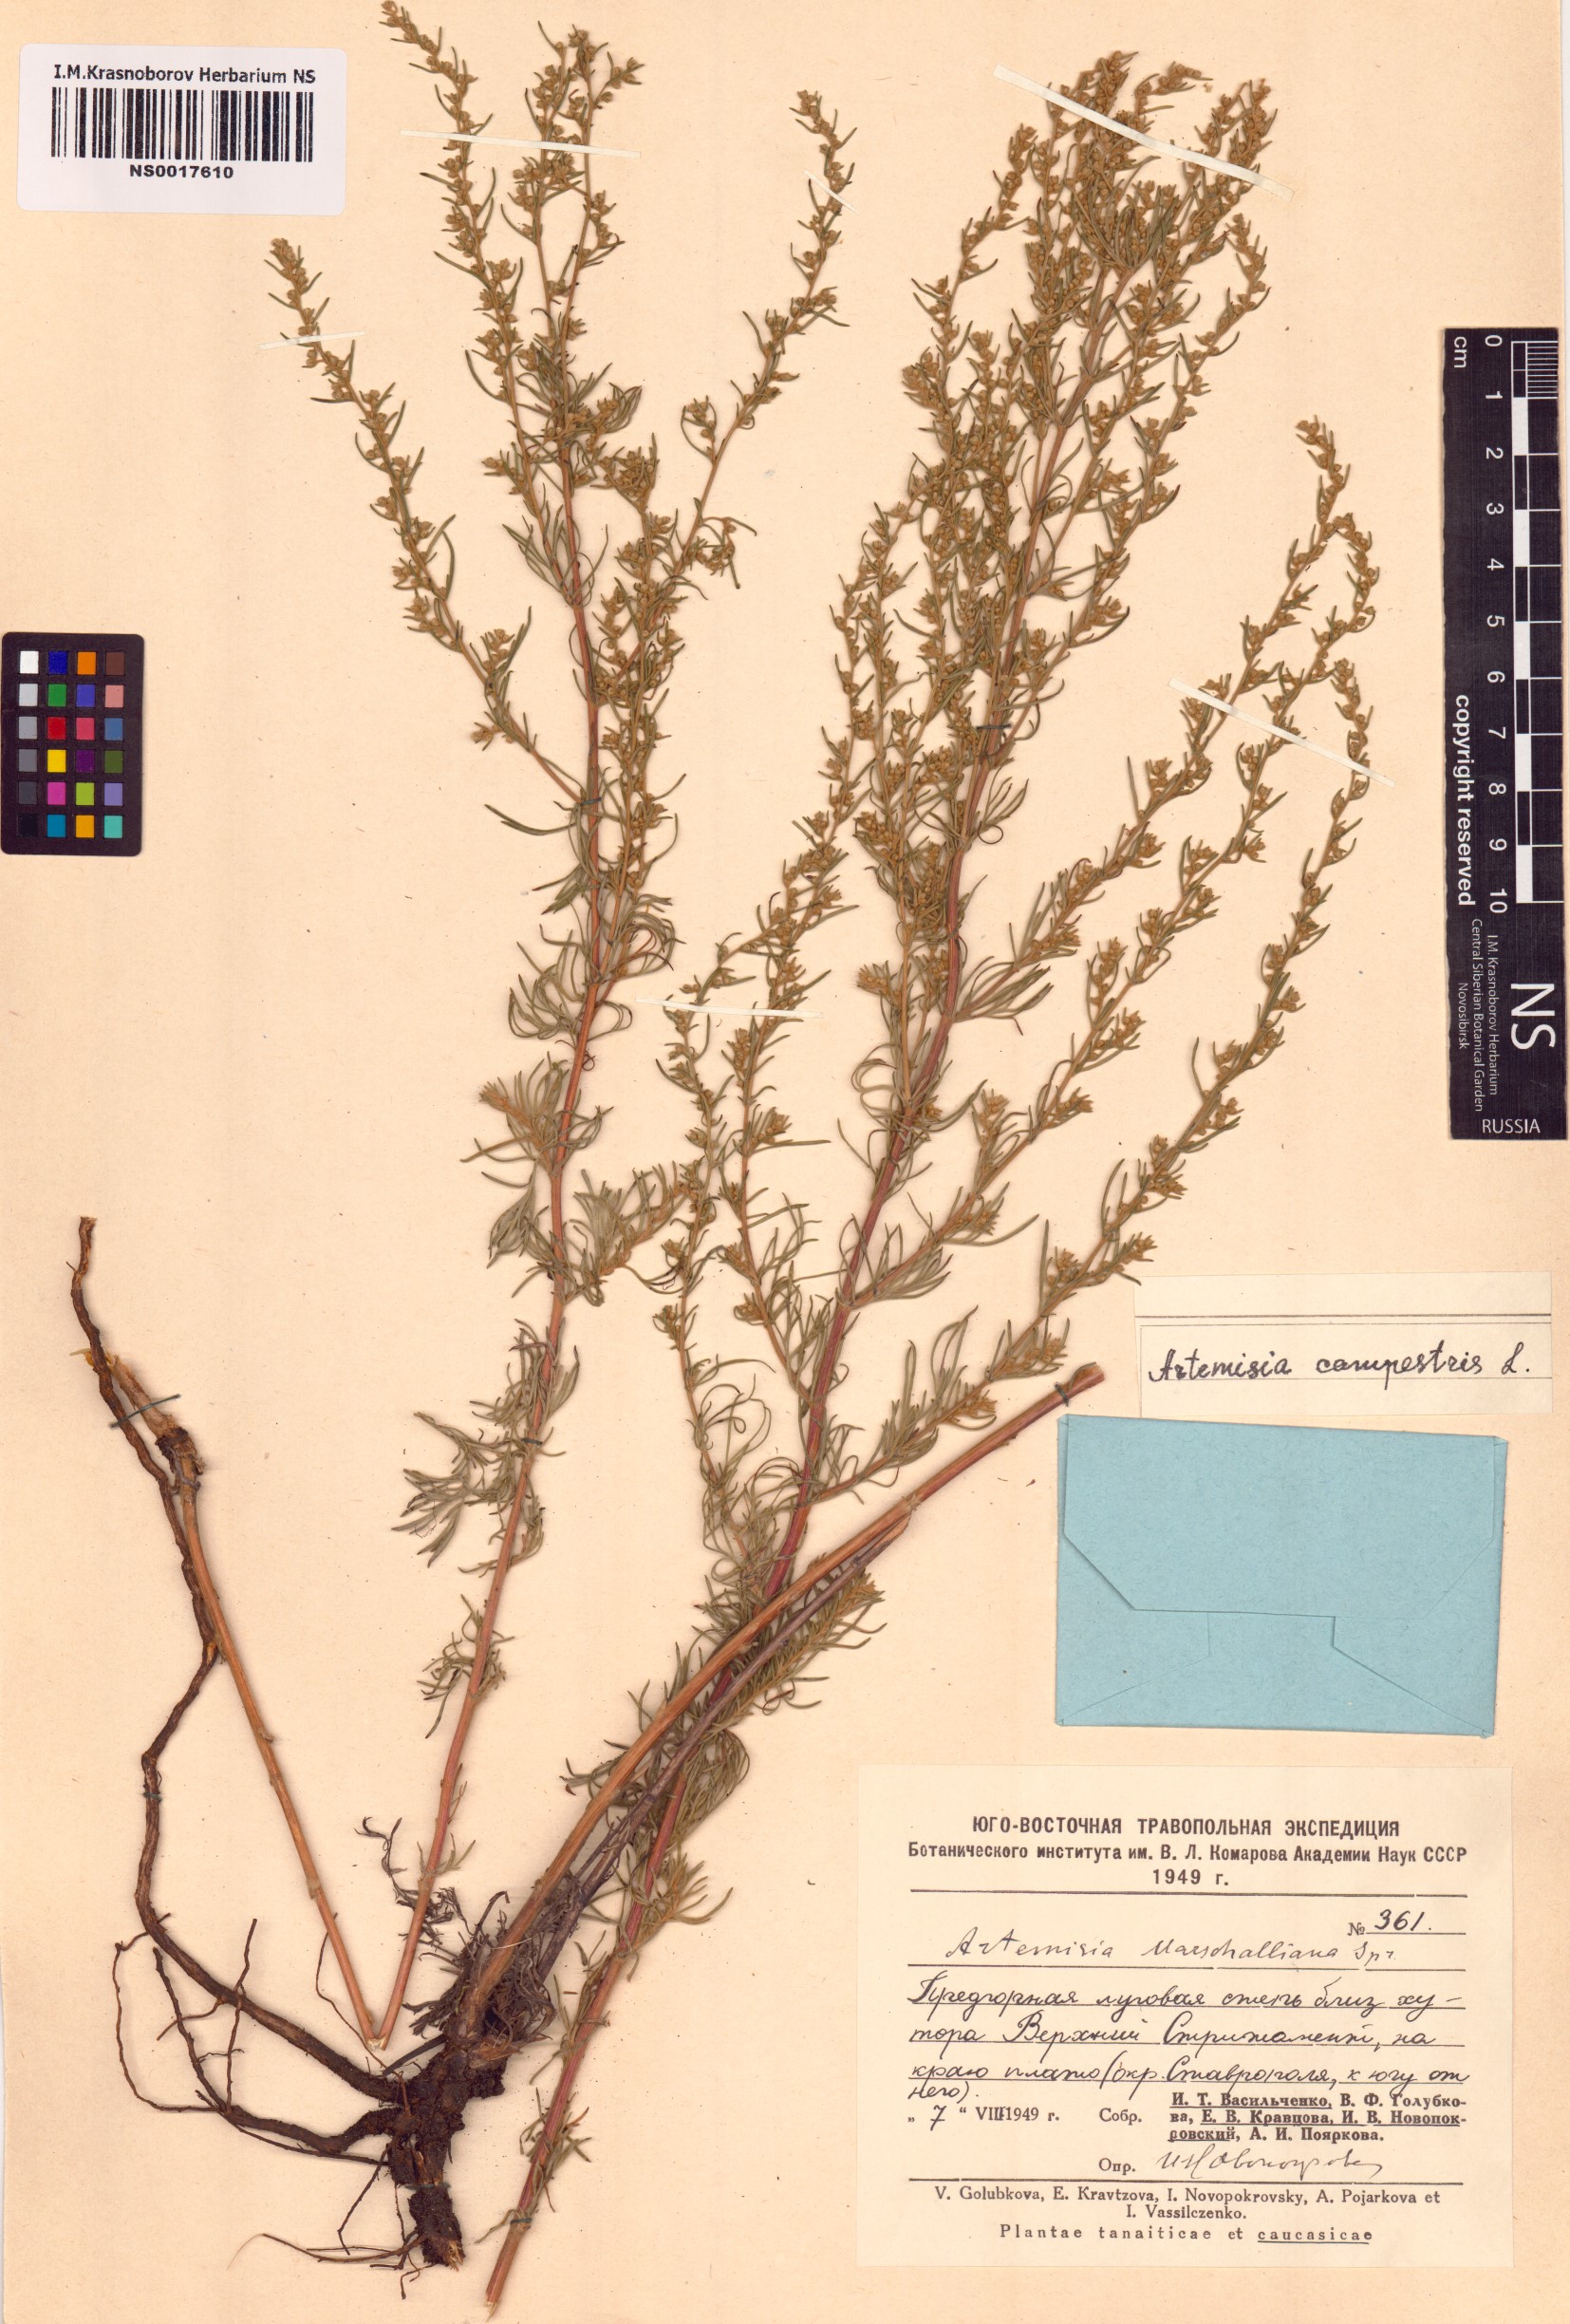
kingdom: Plantae
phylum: Tracheophyta
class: Magnoliopsida
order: Asterales
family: Asteraceae
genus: Artemisia
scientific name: Artemisia marschalliana
